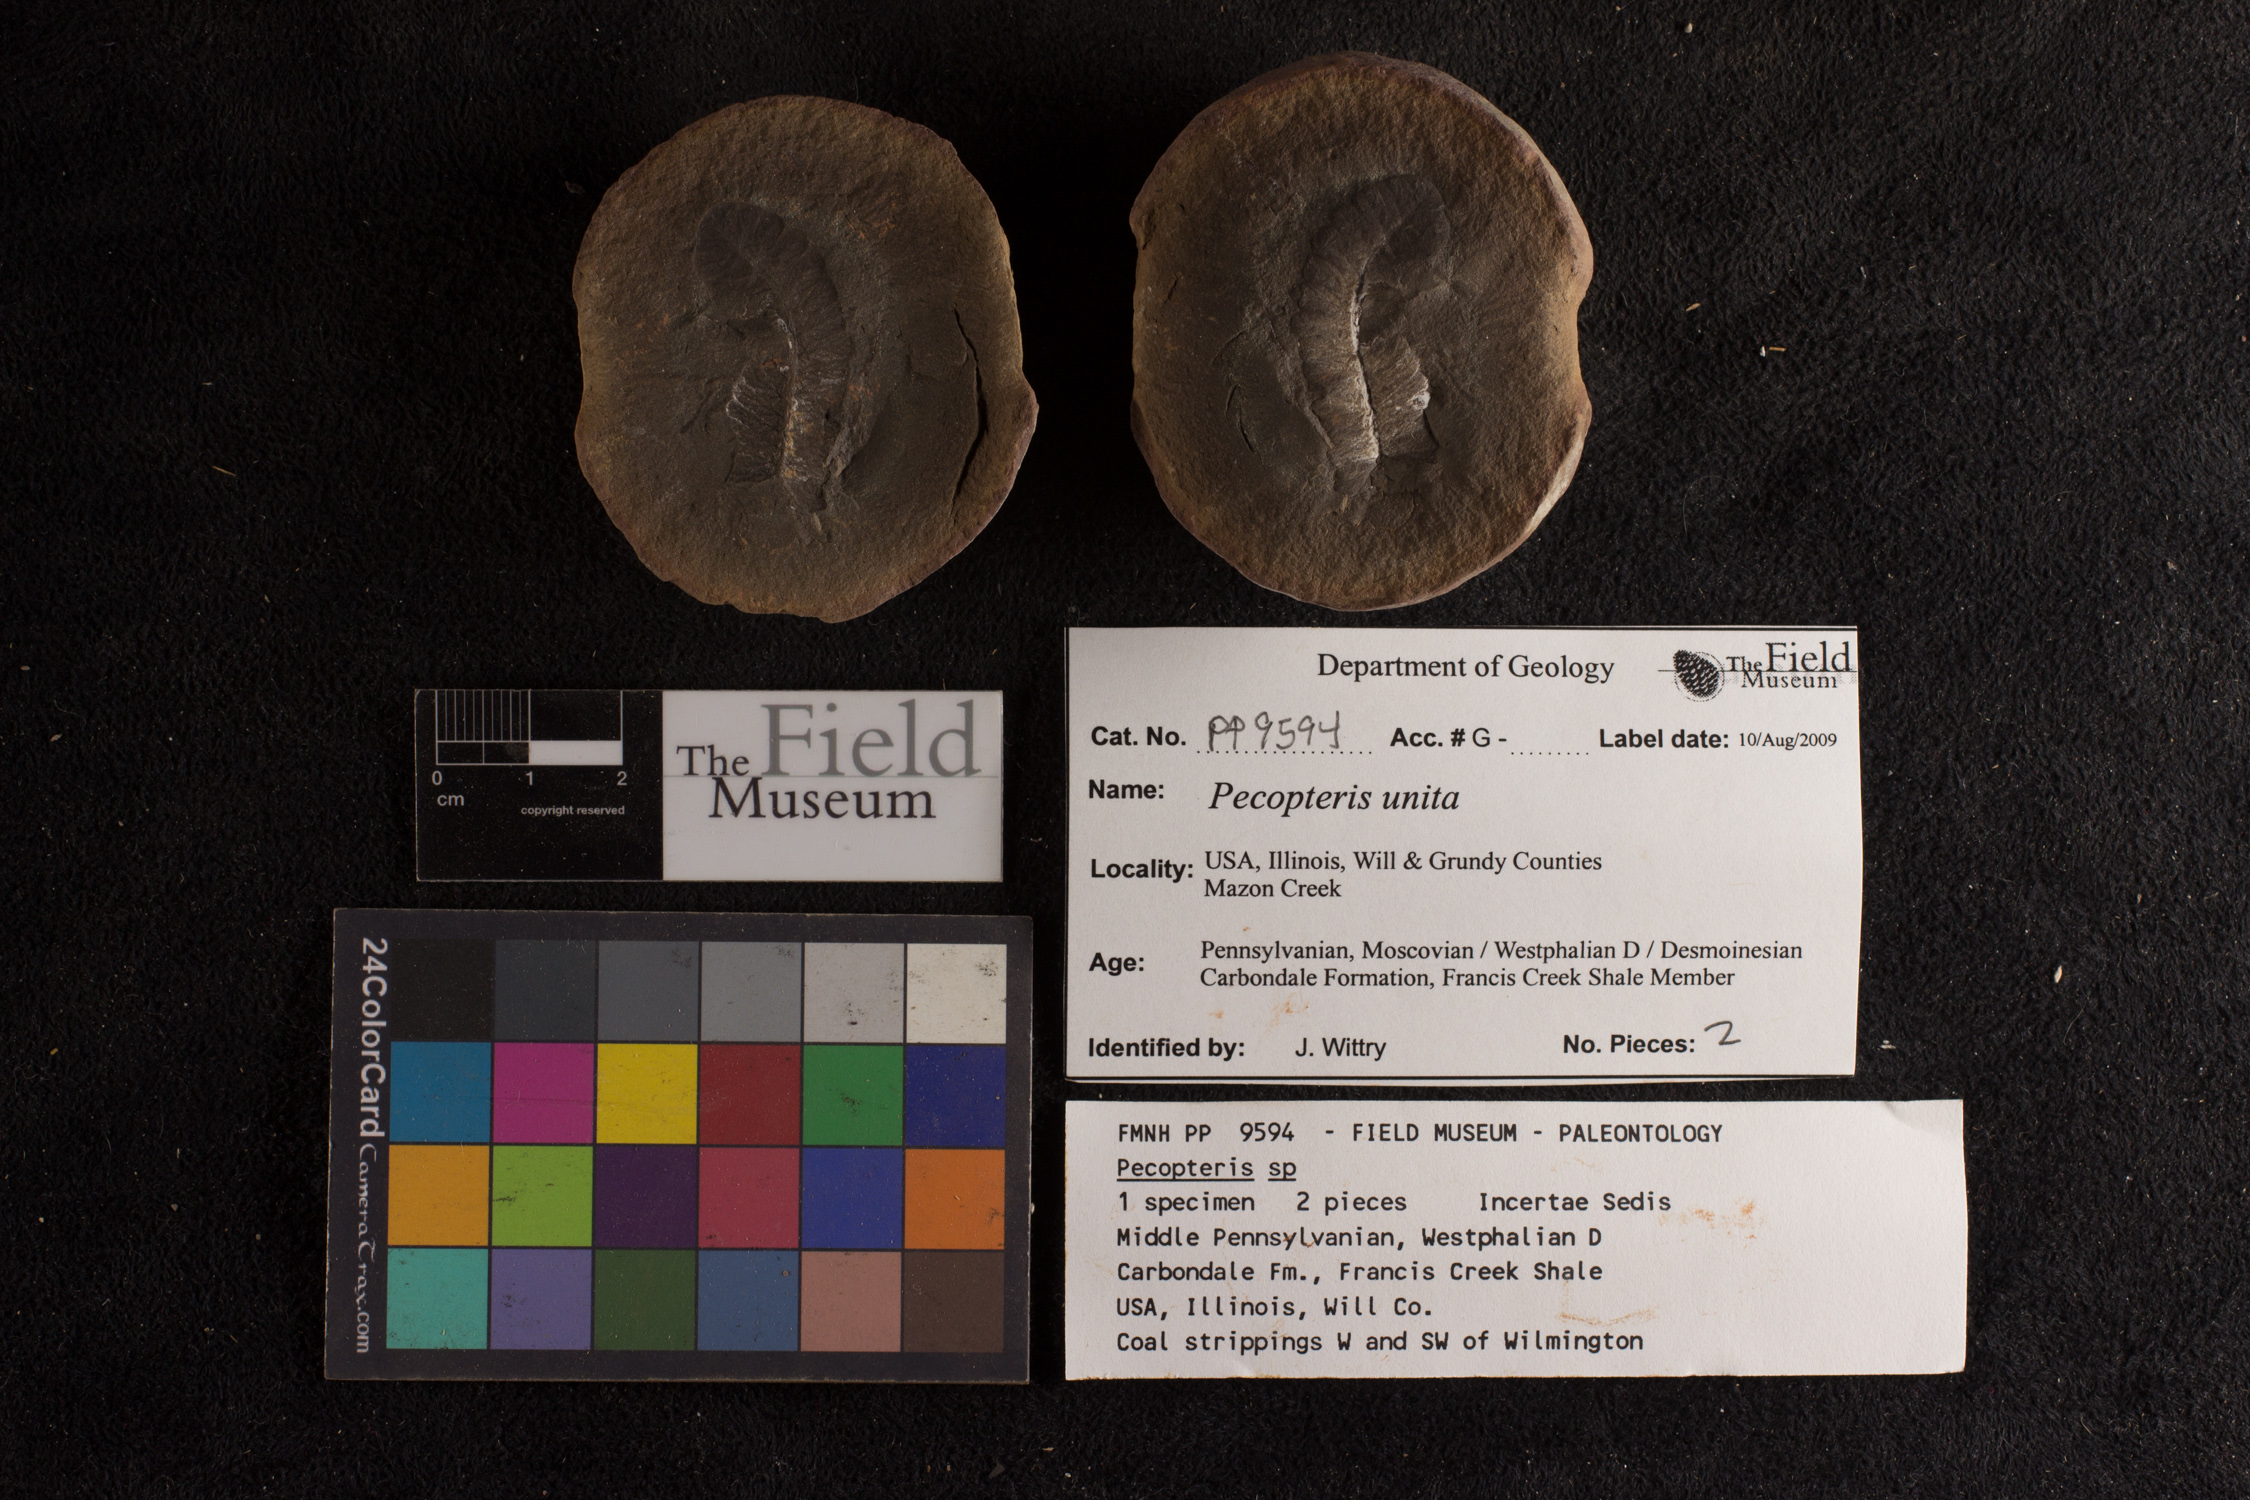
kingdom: Plantae
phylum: Tracheophyta
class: Polypodiopsida
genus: Diplazites
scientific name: Diplazites
